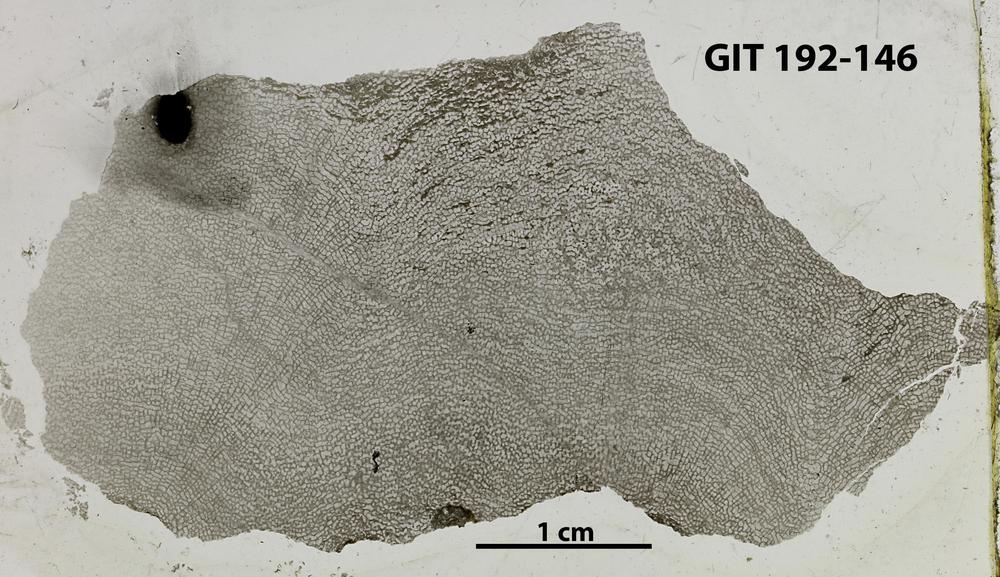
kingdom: Animalia
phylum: Porifera
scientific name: Porifera
